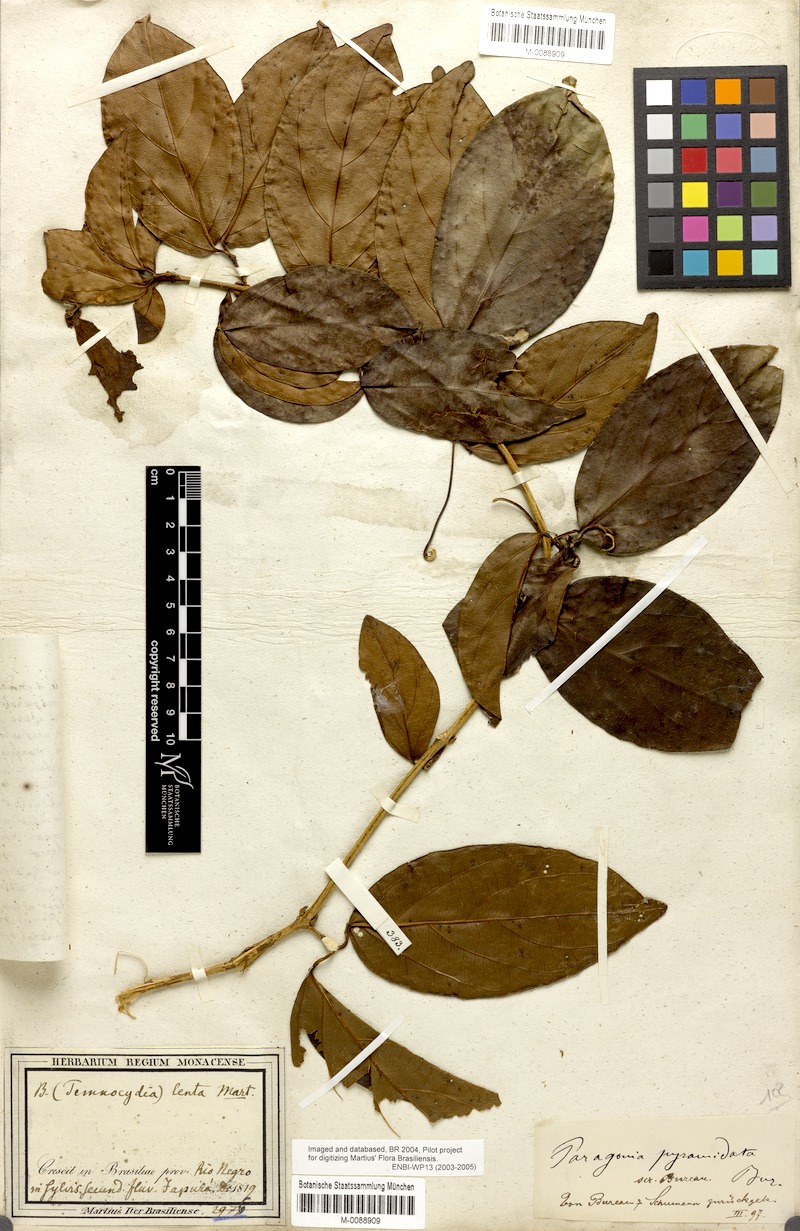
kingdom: Plantae
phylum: Tracheophyta
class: Magnoliopsida
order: Lamiales
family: Bignoniaceae
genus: Tanaecium
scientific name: Tanaecium pyramidatum
